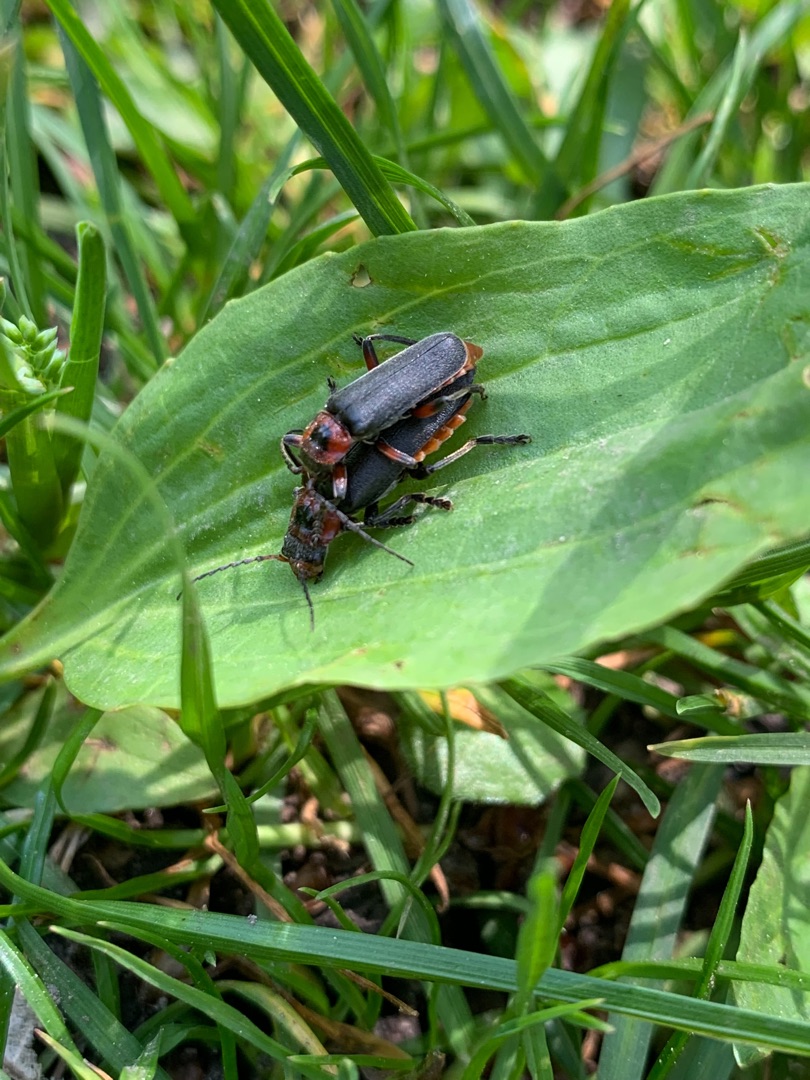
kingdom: Animalia
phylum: Arthropoda
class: Insecta
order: Coleoptera
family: Cantharidae
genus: Cantharis
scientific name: Cantharis rustica
